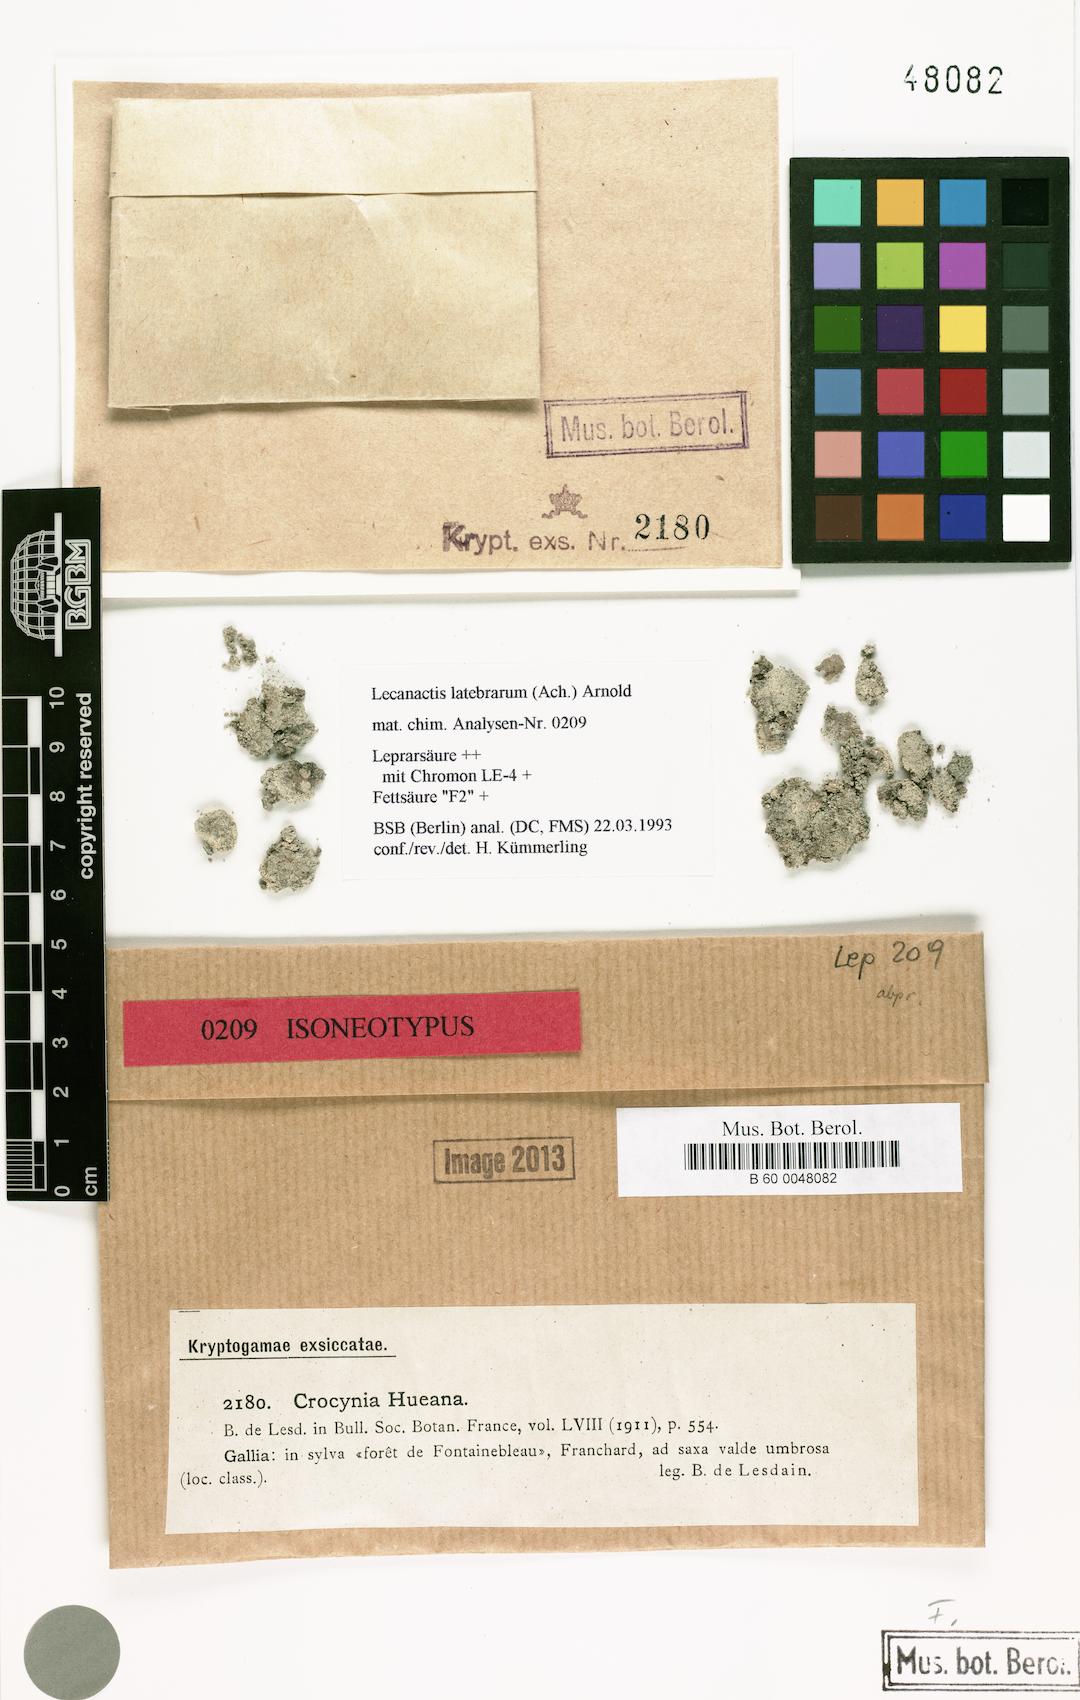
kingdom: Fungi
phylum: Ascomycota
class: Arthoniomycetes
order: Arthoniales
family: Roccellaceae
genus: Dendrographa
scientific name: Dendrographa latebrarum
